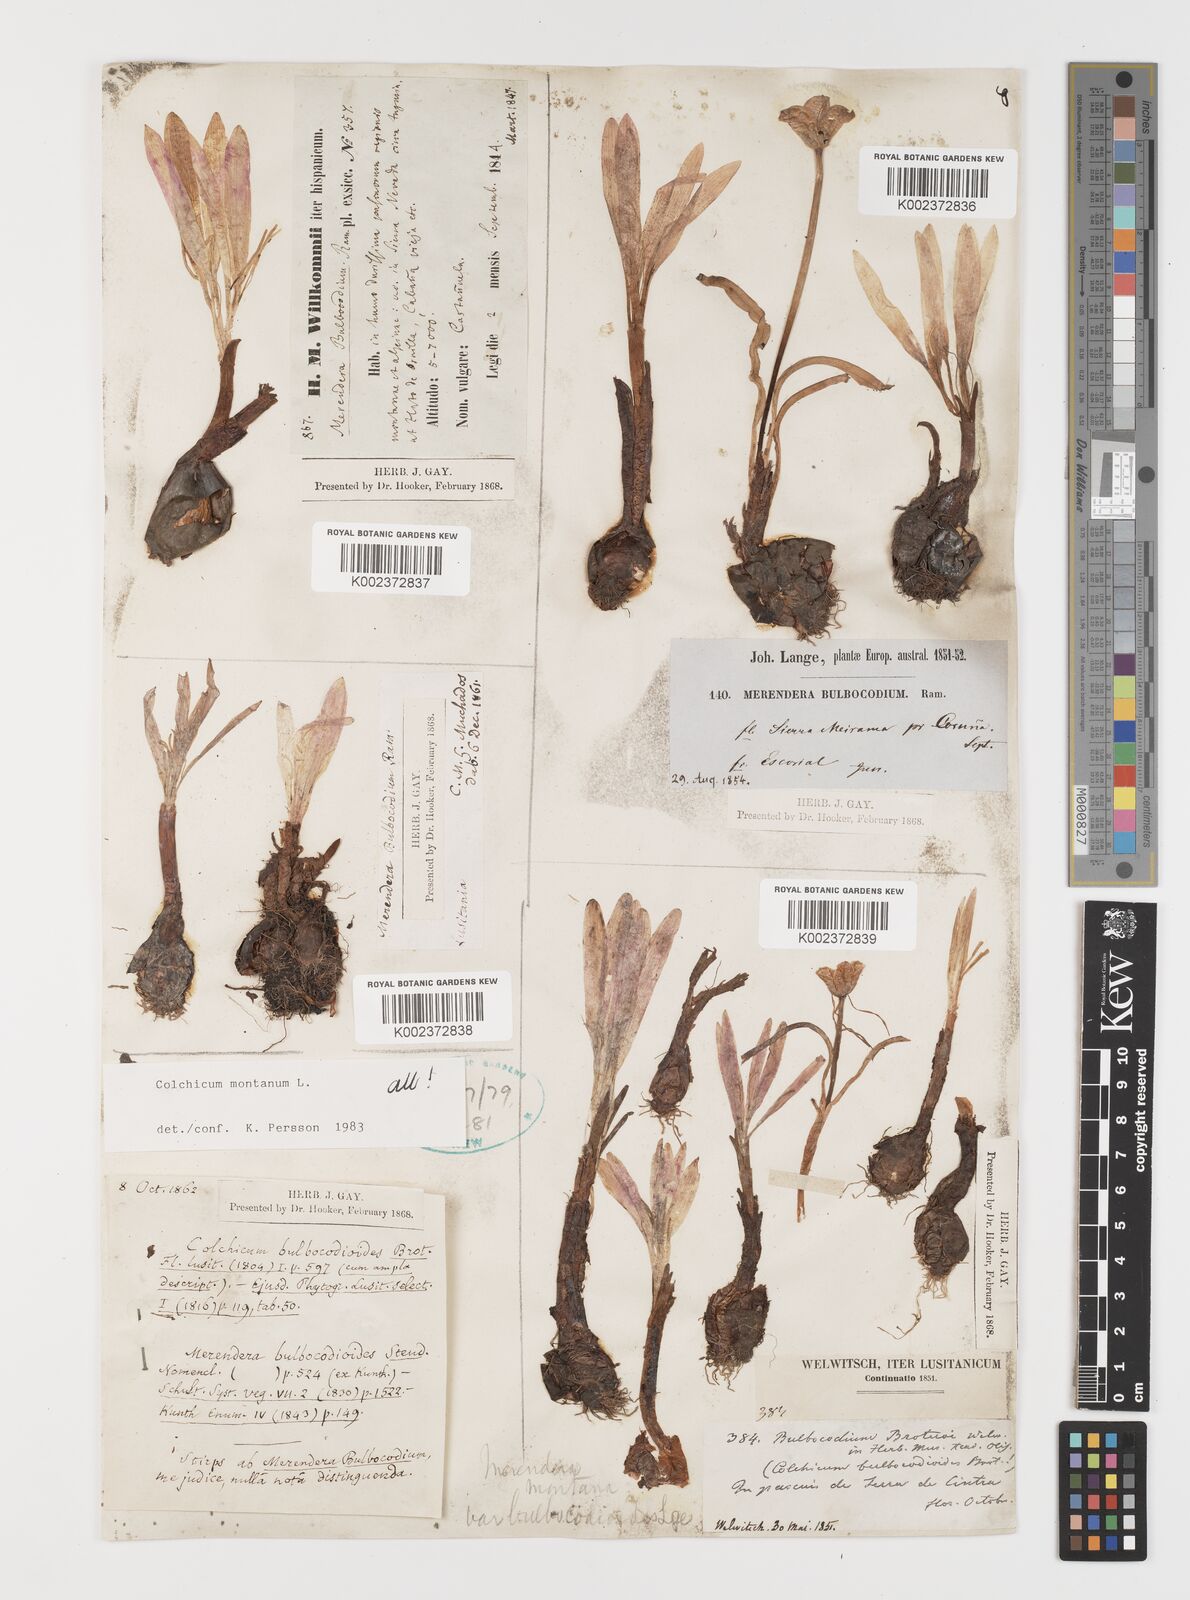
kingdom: Plantae
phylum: Tracheophyta
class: Liliopsida
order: Liliales
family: Colchicaceae
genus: Colchicum
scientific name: Colchicum montanum
